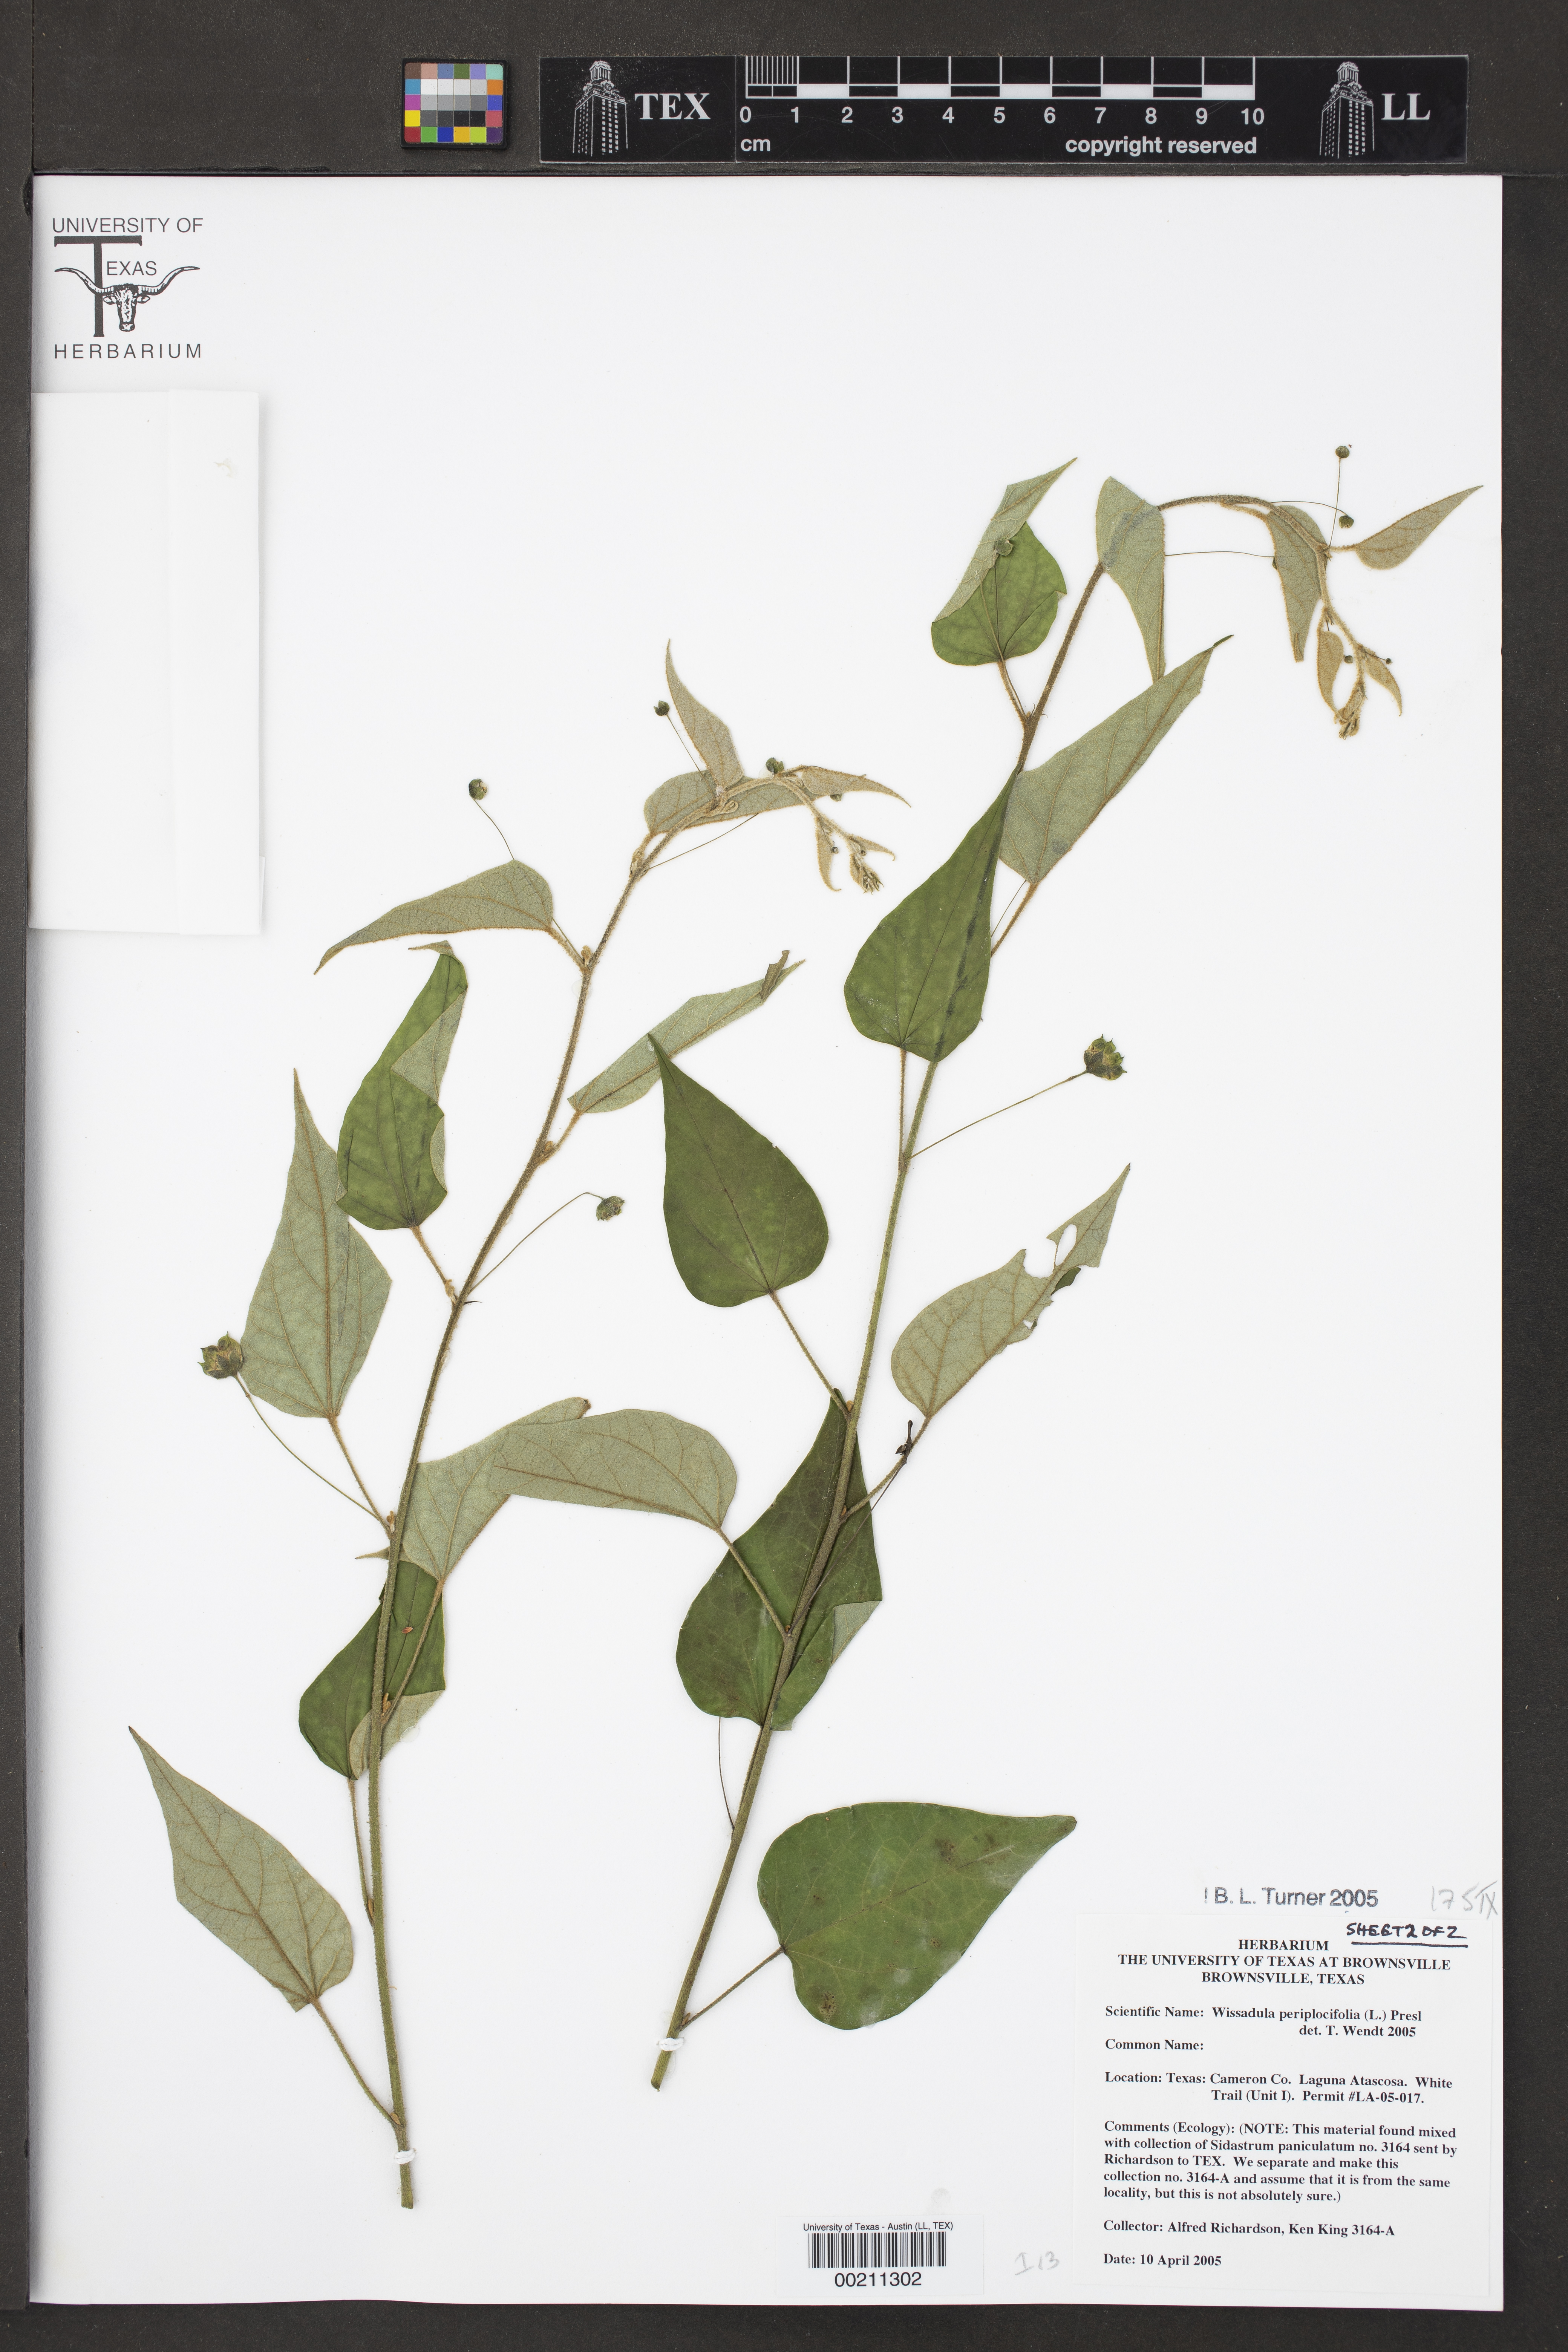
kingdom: Plantae
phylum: Tracheophyta
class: Magnoliopsida
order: Malvales
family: Malvaceae
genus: Wissadula
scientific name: Wissadula periplocifolia
